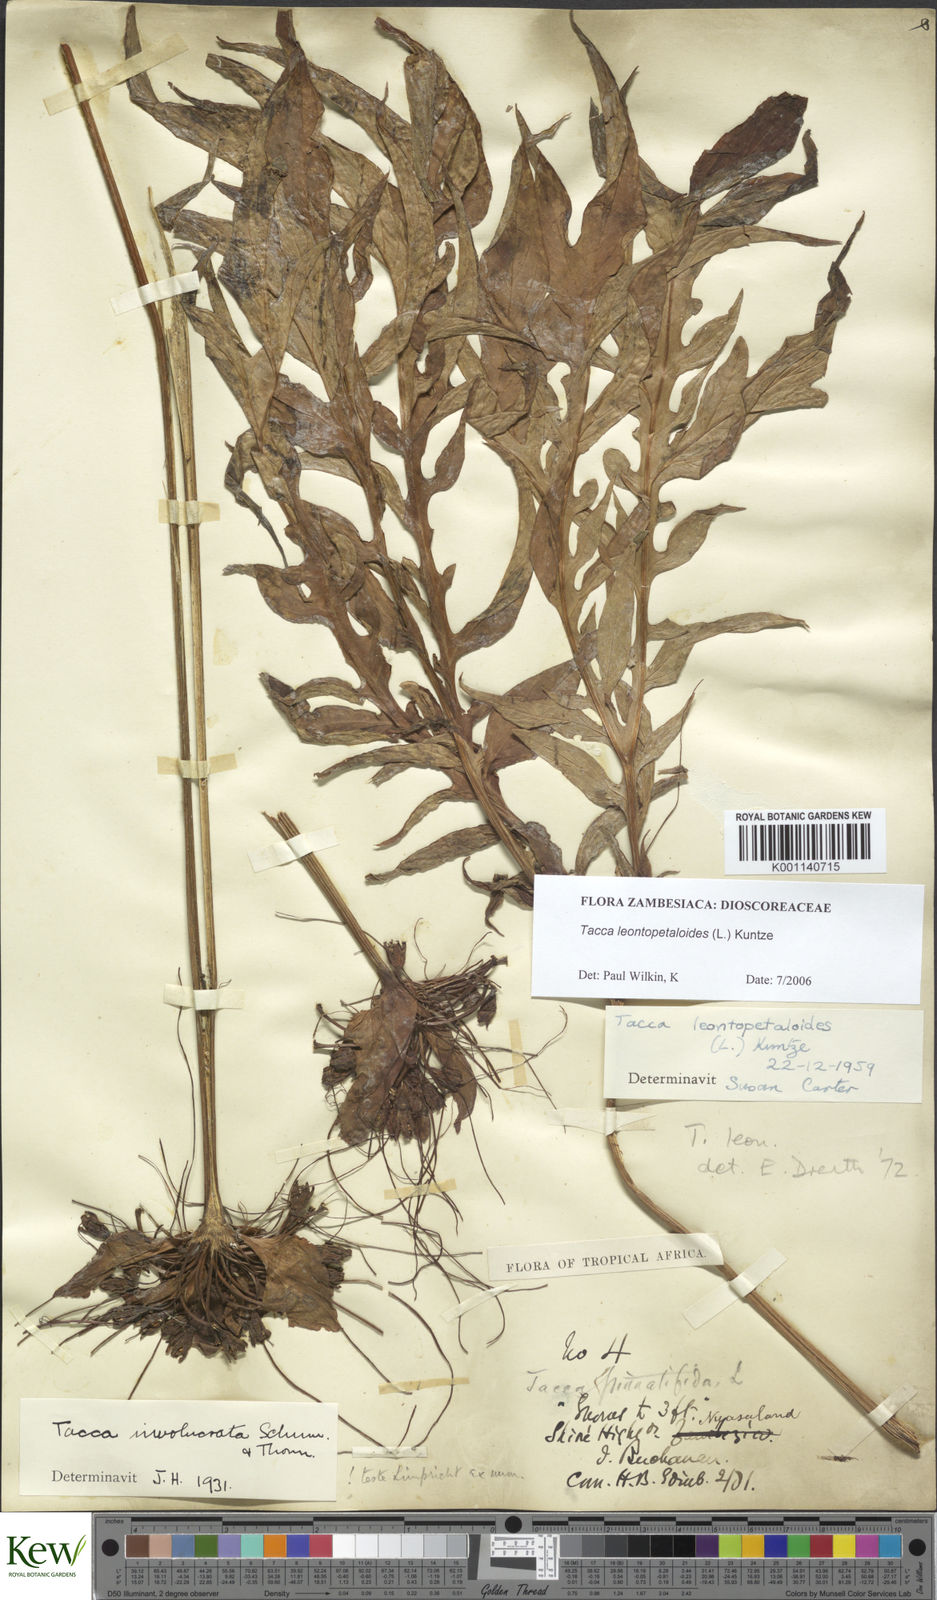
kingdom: Plantae
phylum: Tracheophyta
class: Liliopsida
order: Dioscoreales
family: Dioscoreaceae
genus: Tacca
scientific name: Tacca leontopetaloides
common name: Arrowroot
